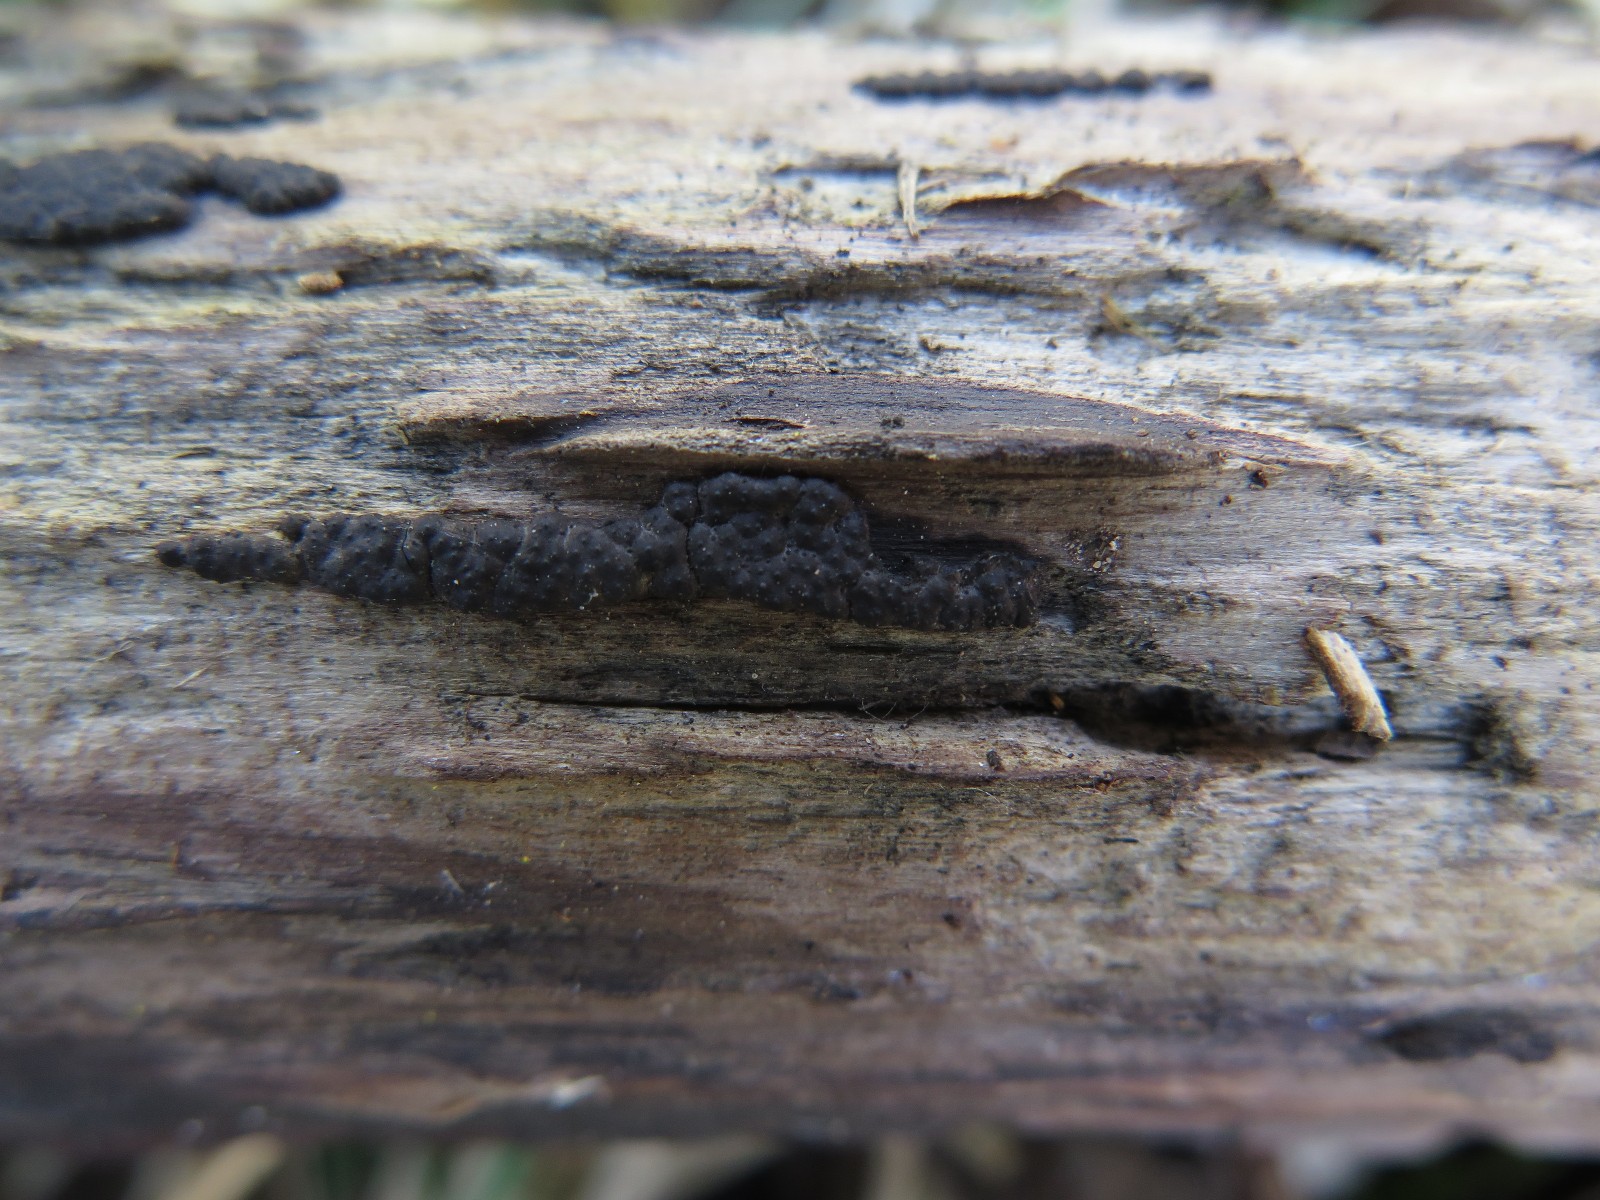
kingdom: Fungi
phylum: Ascomycota
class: Sordariomycetes
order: Xylariales
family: Xylariaceae
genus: Nemania
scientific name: Nemania serpens
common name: almindelig kuldyne
